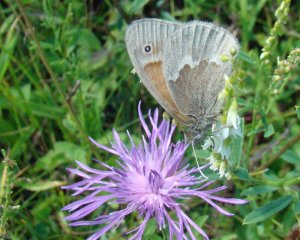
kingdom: Animalia
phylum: Arthropoda
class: Insecta
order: Lepidoptera
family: Nymphalidae
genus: Coenonympha
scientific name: Coenonympha tullia
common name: Large Heath
